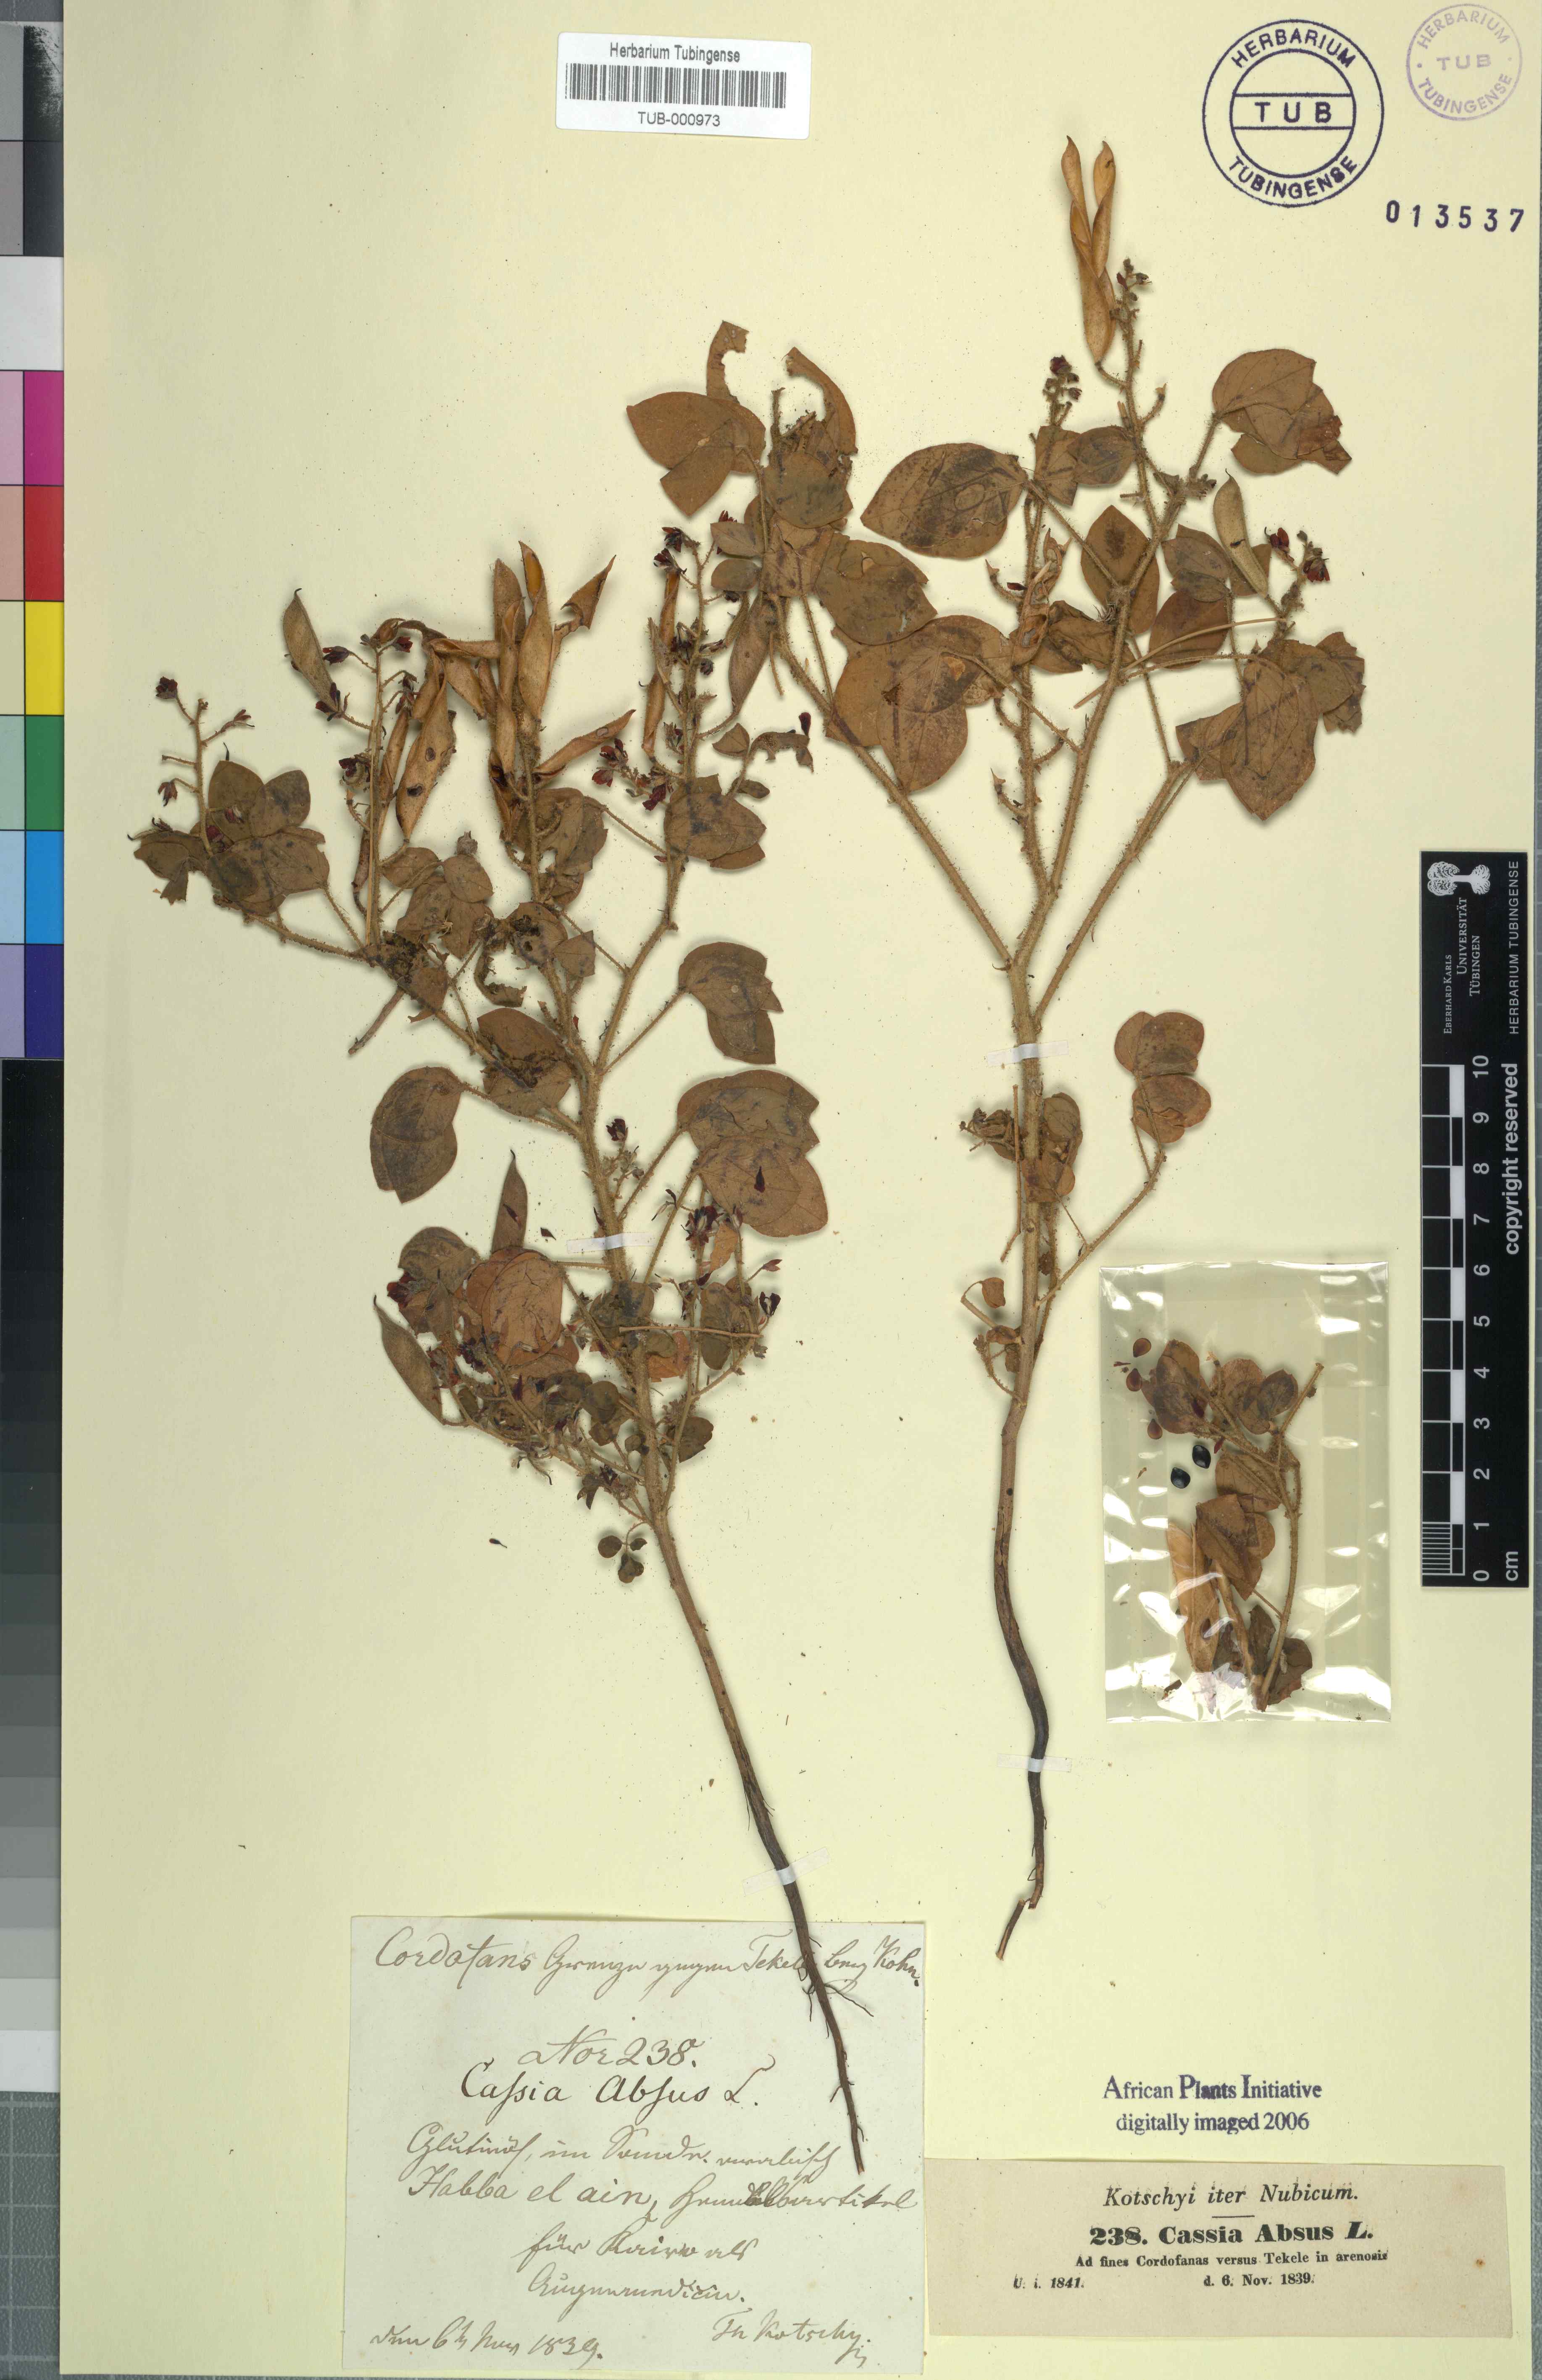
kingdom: Plantae
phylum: Tracheophyta
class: Magnoliopsida
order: Fabales
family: Fabaceae
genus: Chamaecrista
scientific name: Chamaecrista absus
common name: Tropical sensitive pea
